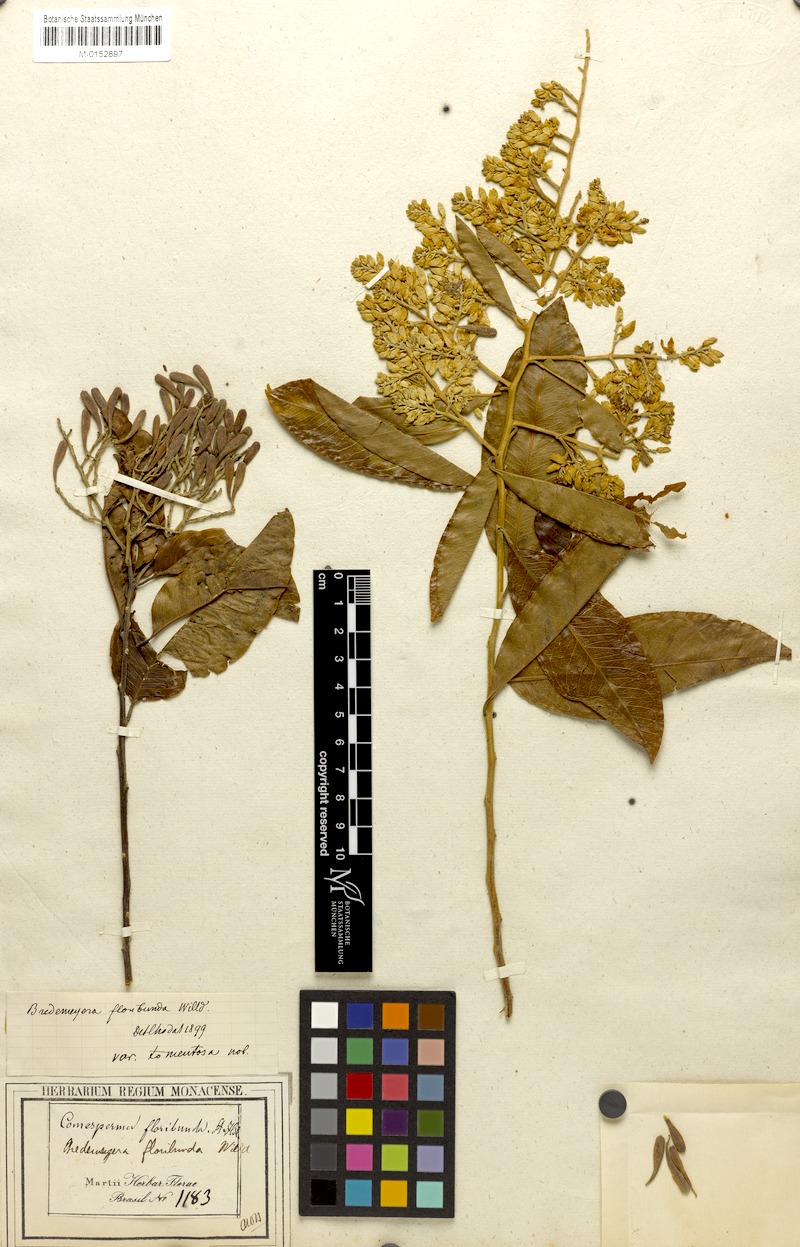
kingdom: Plantae
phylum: Tracheophyta
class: Magnoliopsida
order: Fabales
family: Polygalaceae
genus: Bredemeyera
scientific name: Bredemeyera floribunda
